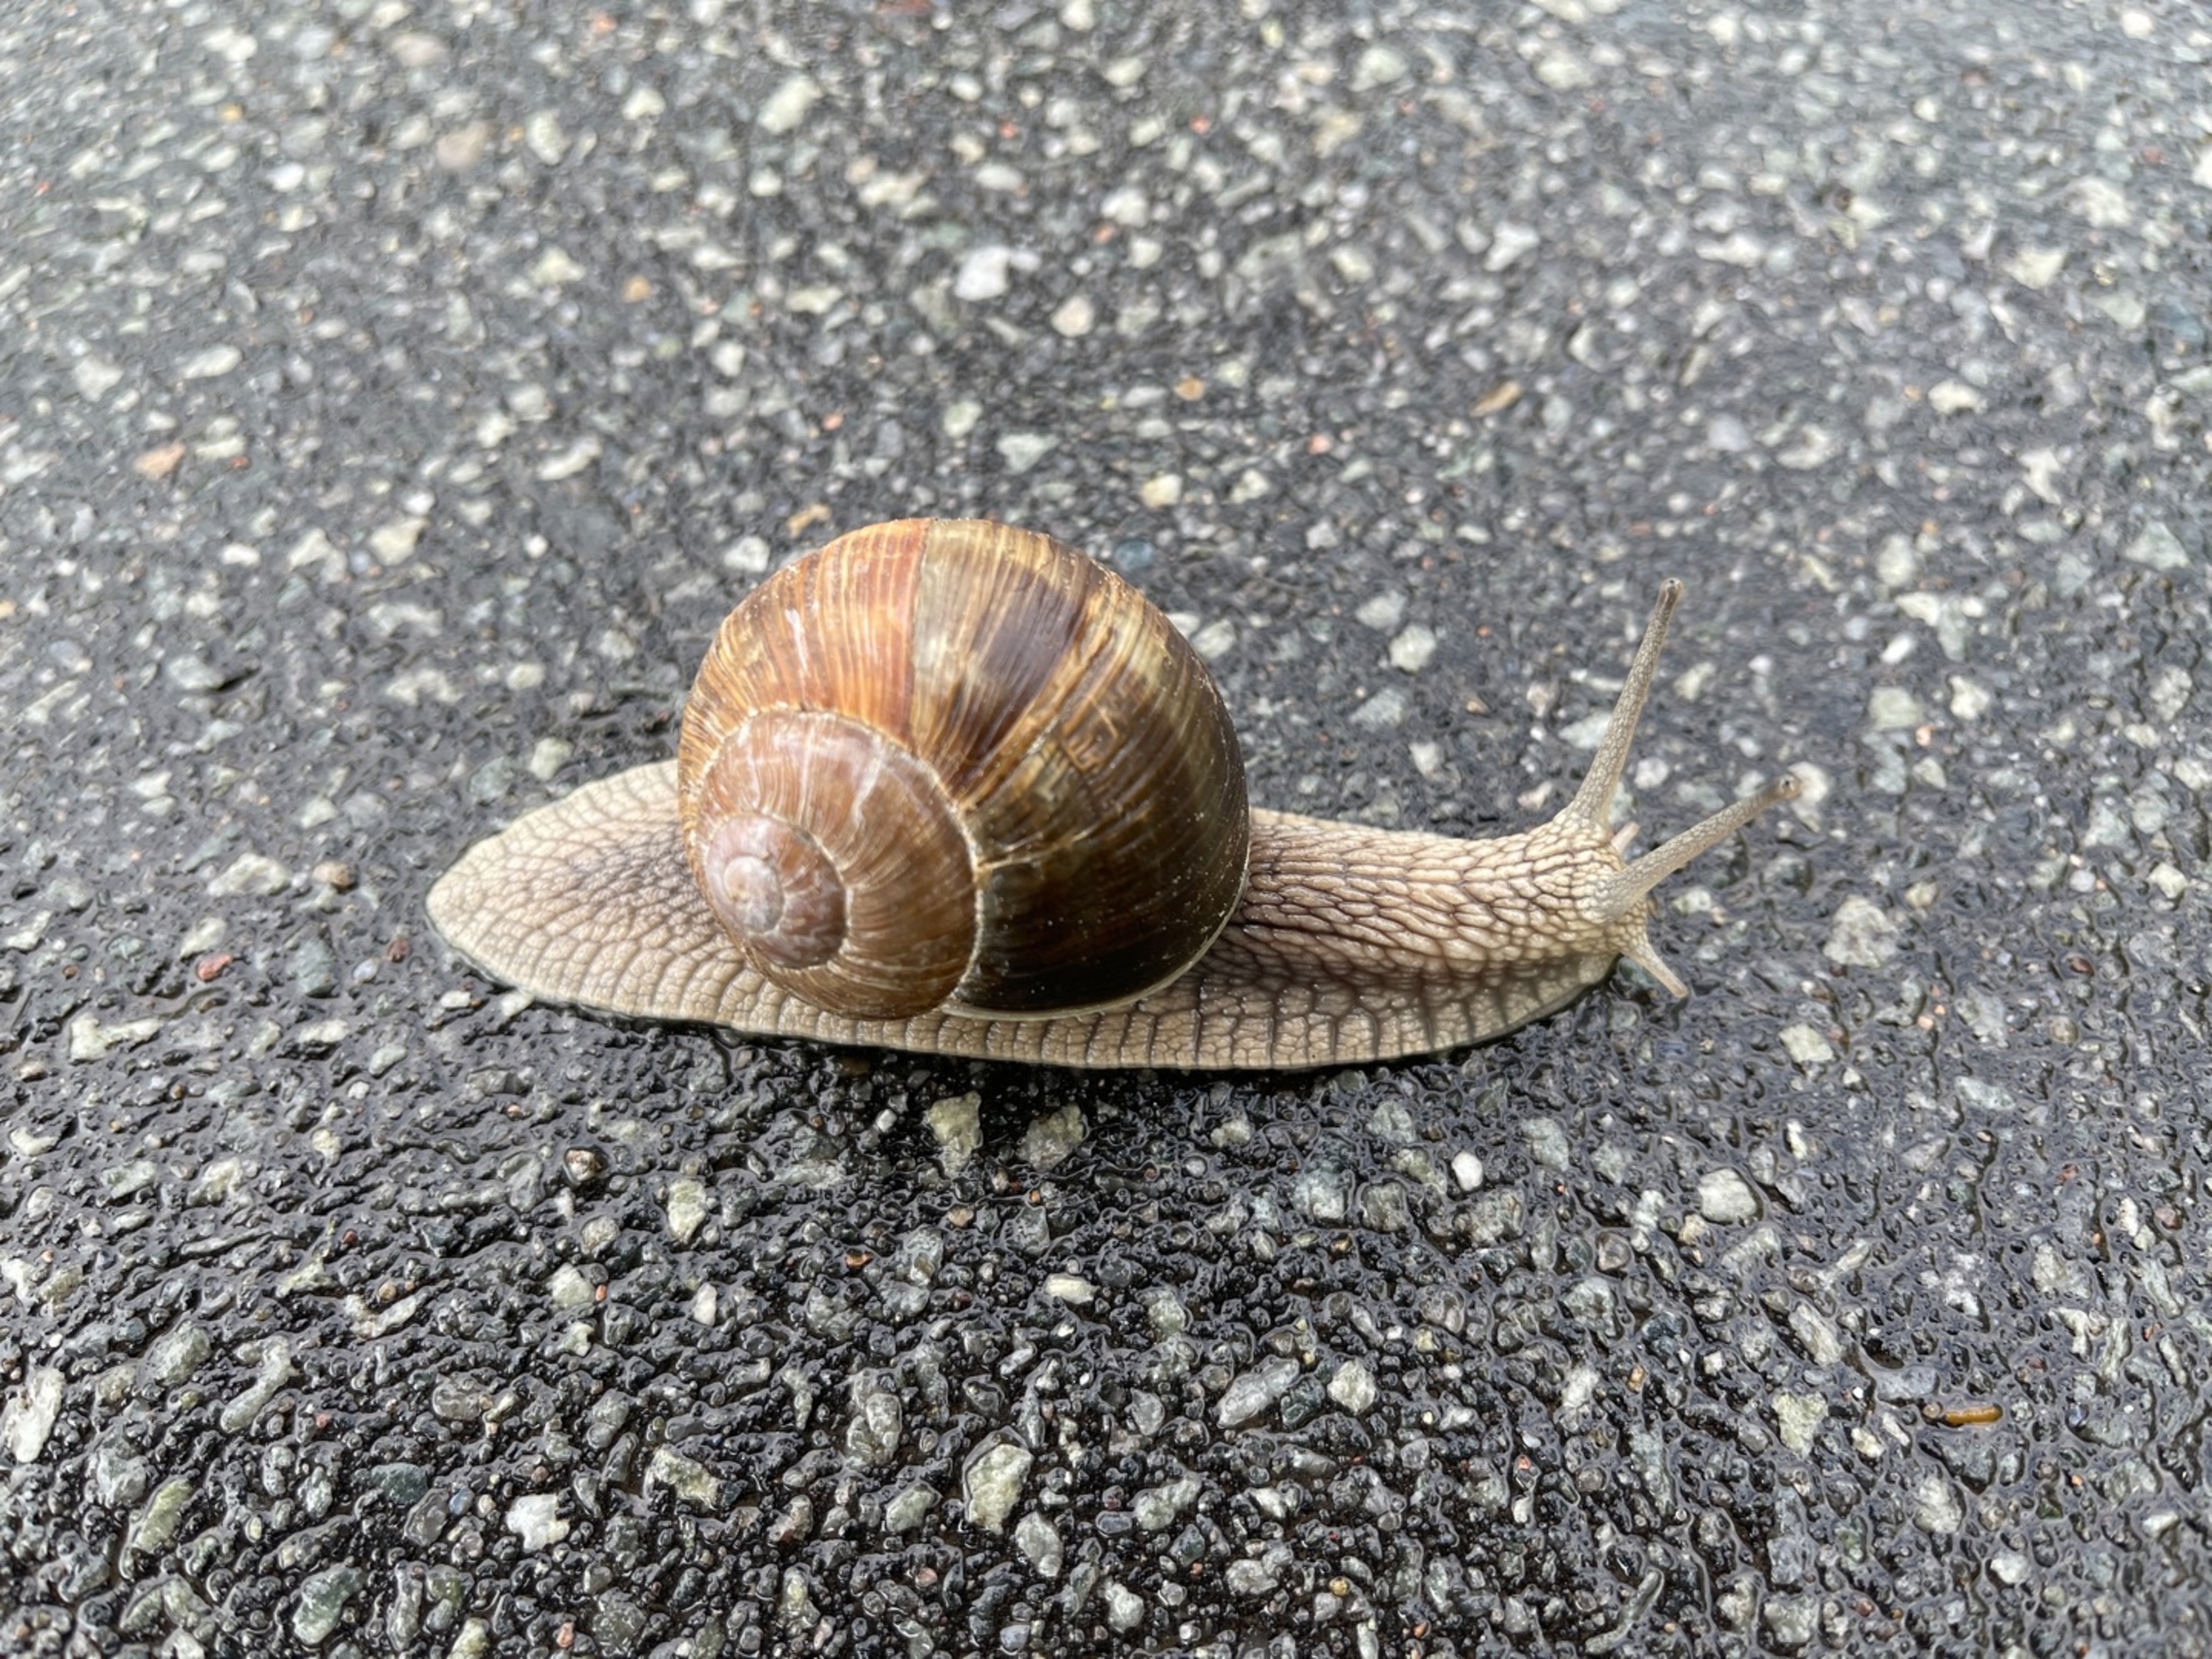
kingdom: Animalia
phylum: Mollusca
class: Gastropoda
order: Stylommatophora
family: Helicidae
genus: Helix
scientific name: Helix pomatia
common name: Vinbjergsnegl
